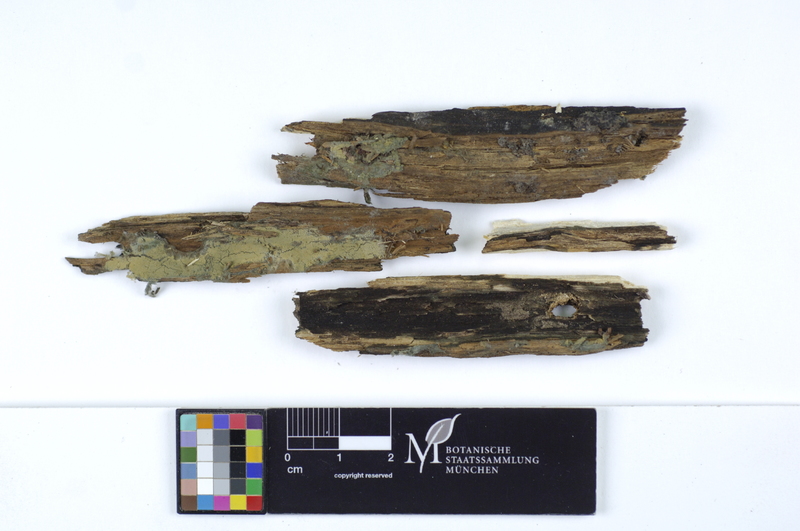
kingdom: Plantae
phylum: Tracheophyta
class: Magnoliopsida
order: Fagales
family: Betulaceae
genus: Betula
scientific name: Betula
